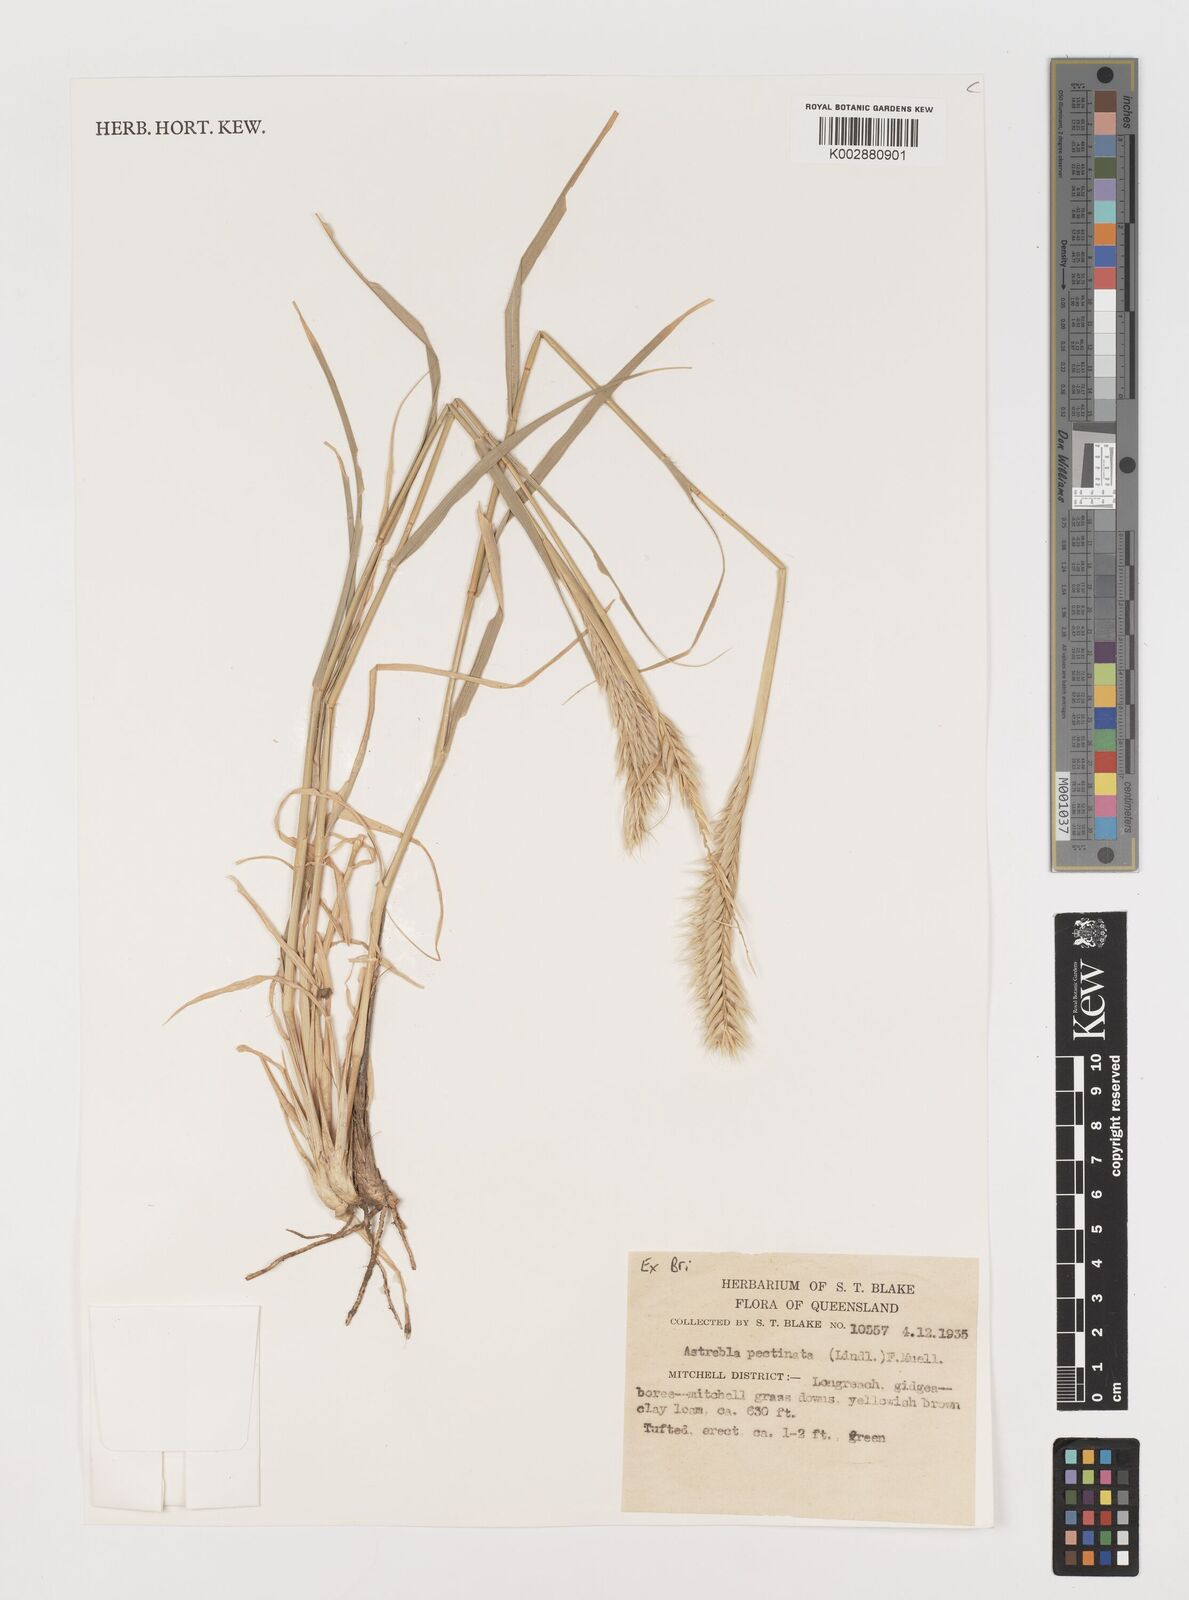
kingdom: Plantae
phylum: Tracheophyta
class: Liliopsida
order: Poales
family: Poaceae
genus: Astrebla
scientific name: Astrebla pectinata
